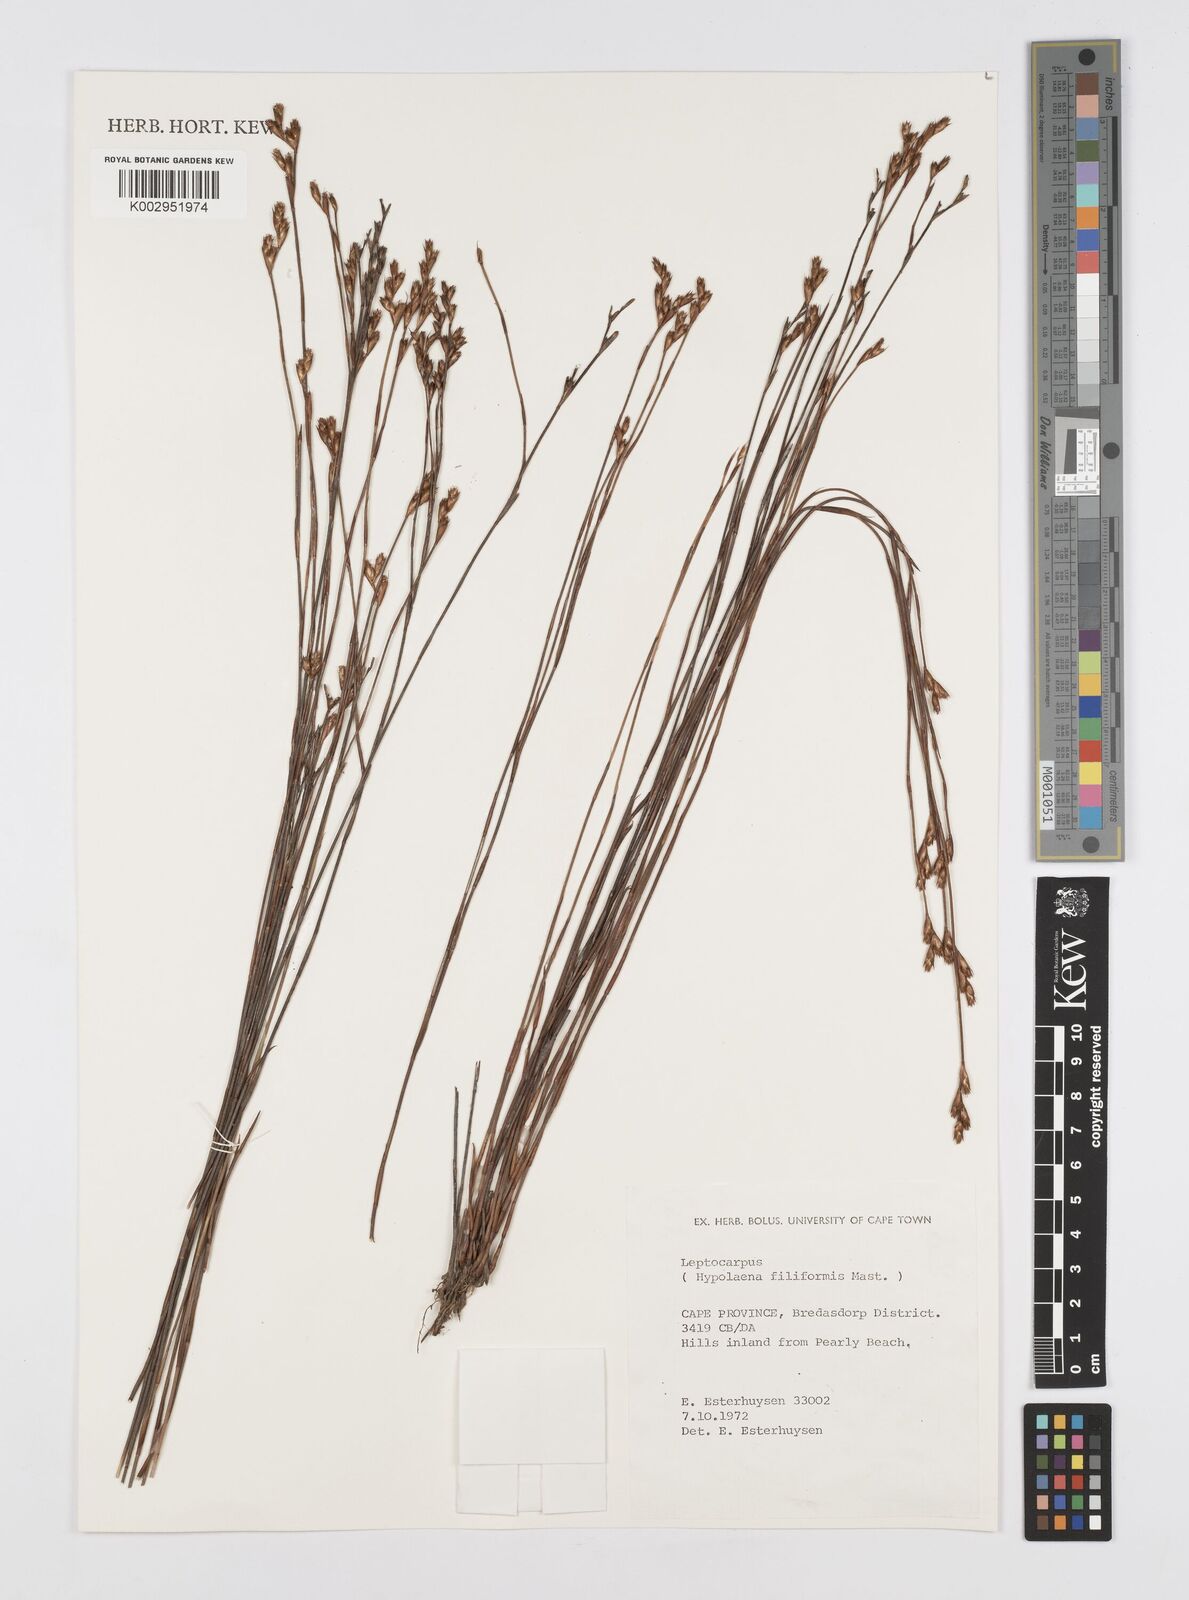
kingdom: Plantae
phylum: Tracheophyta
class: Liliopsida
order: Poales
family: Restionaceae
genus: Restio
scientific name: Restio filiformis
